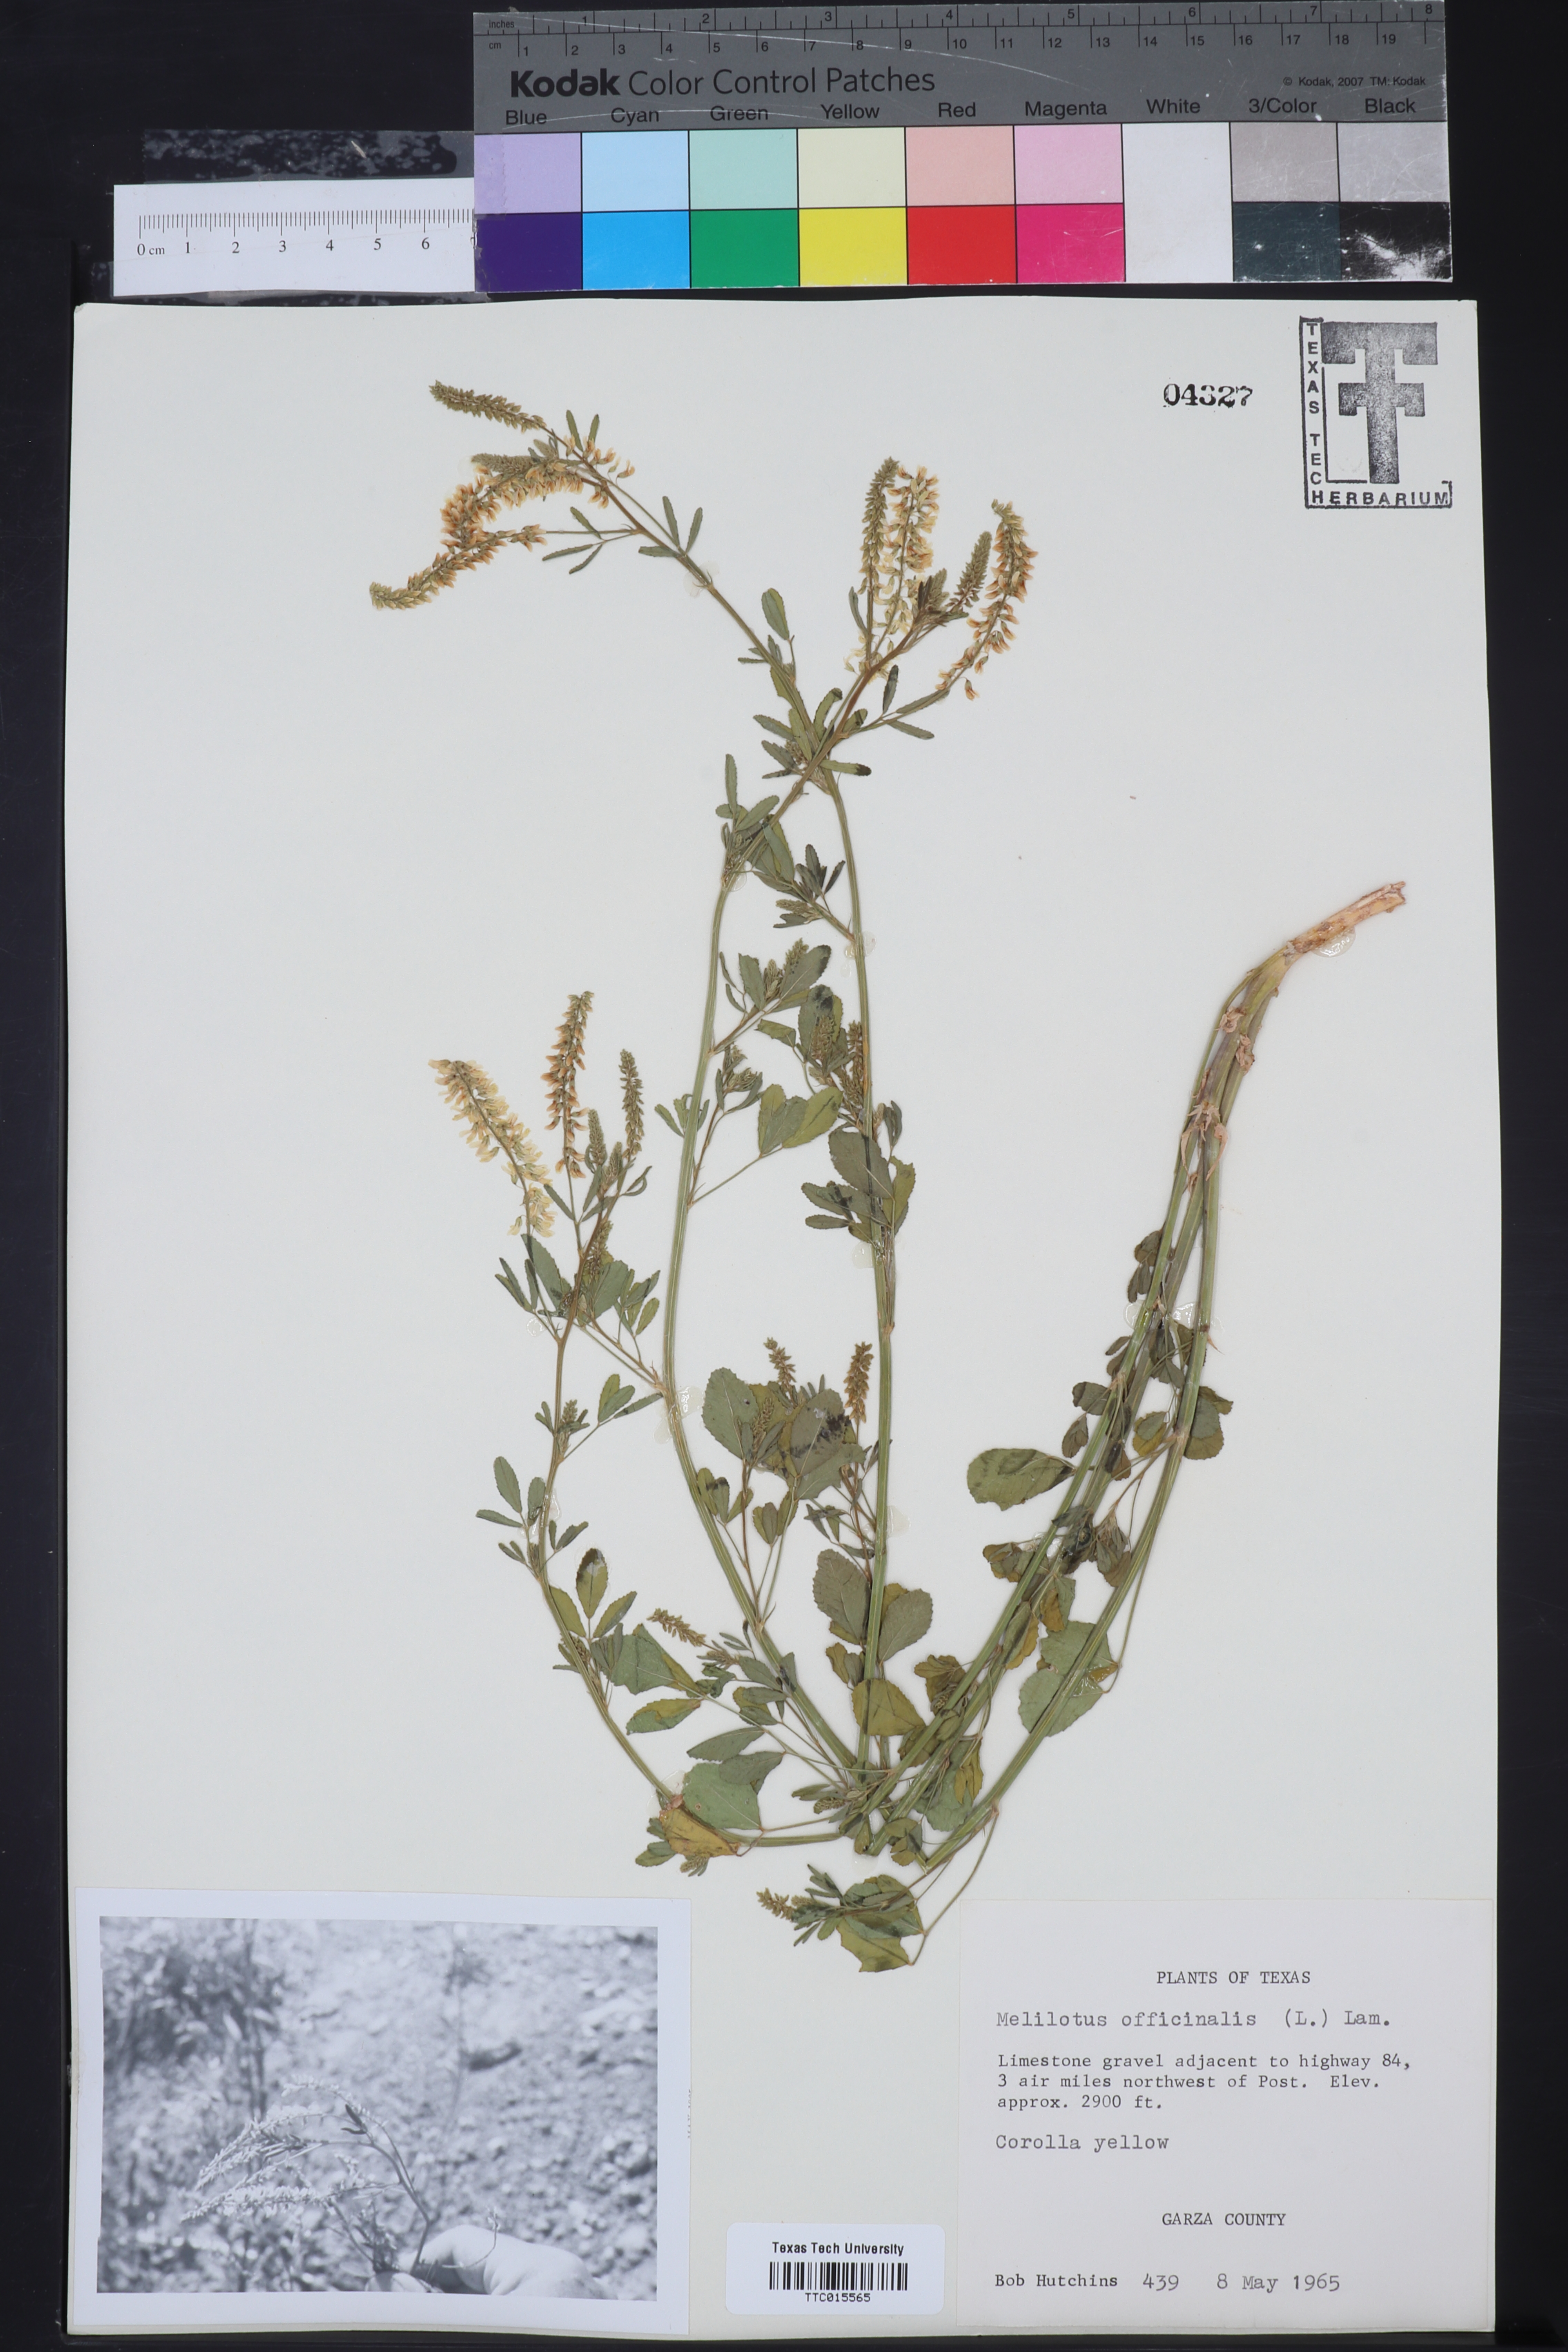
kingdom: Plantae
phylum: Tracheophyta
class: Magnoliopsida
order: Fabales
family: Fabaceae
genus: Melilotus
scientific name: Melilotus officinalis
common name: Sweetclover
